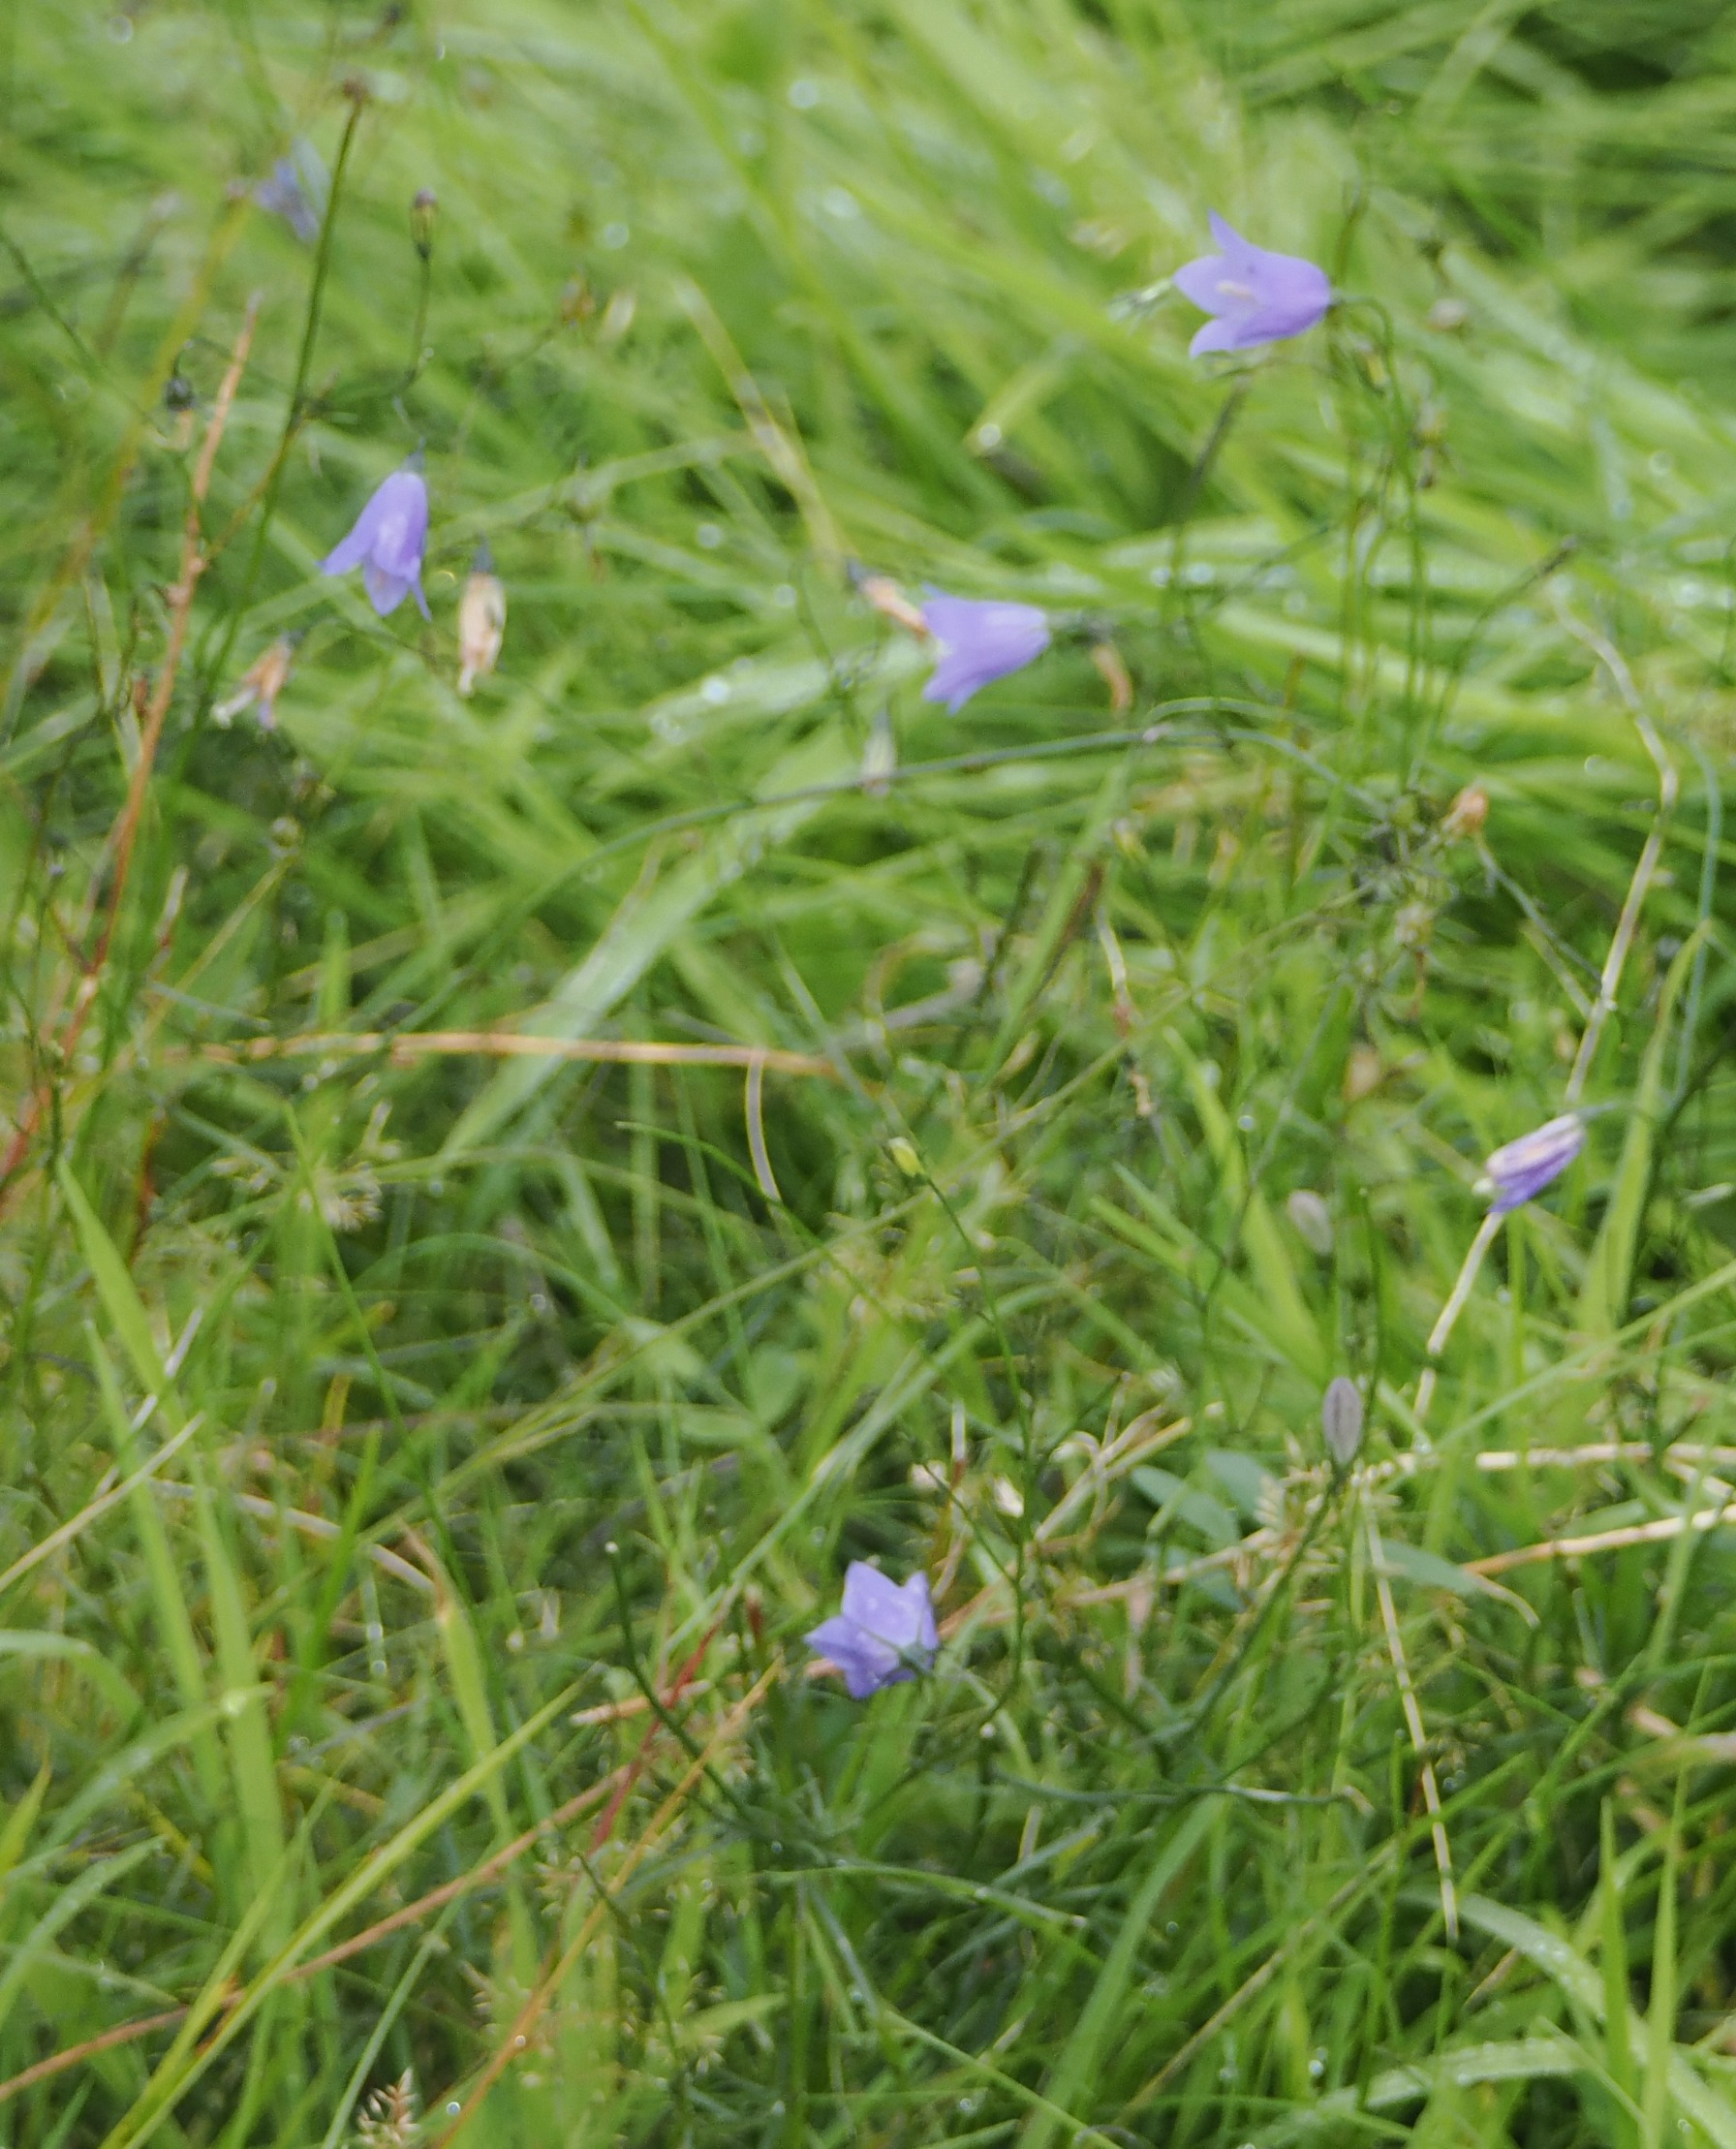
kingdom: Plantae
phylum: Tracheophyta
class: Magnoliopsida
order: Asterales
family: Campanulaceae
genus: Campanula
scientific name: Campanula rotundifolia
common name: Liden klokke
